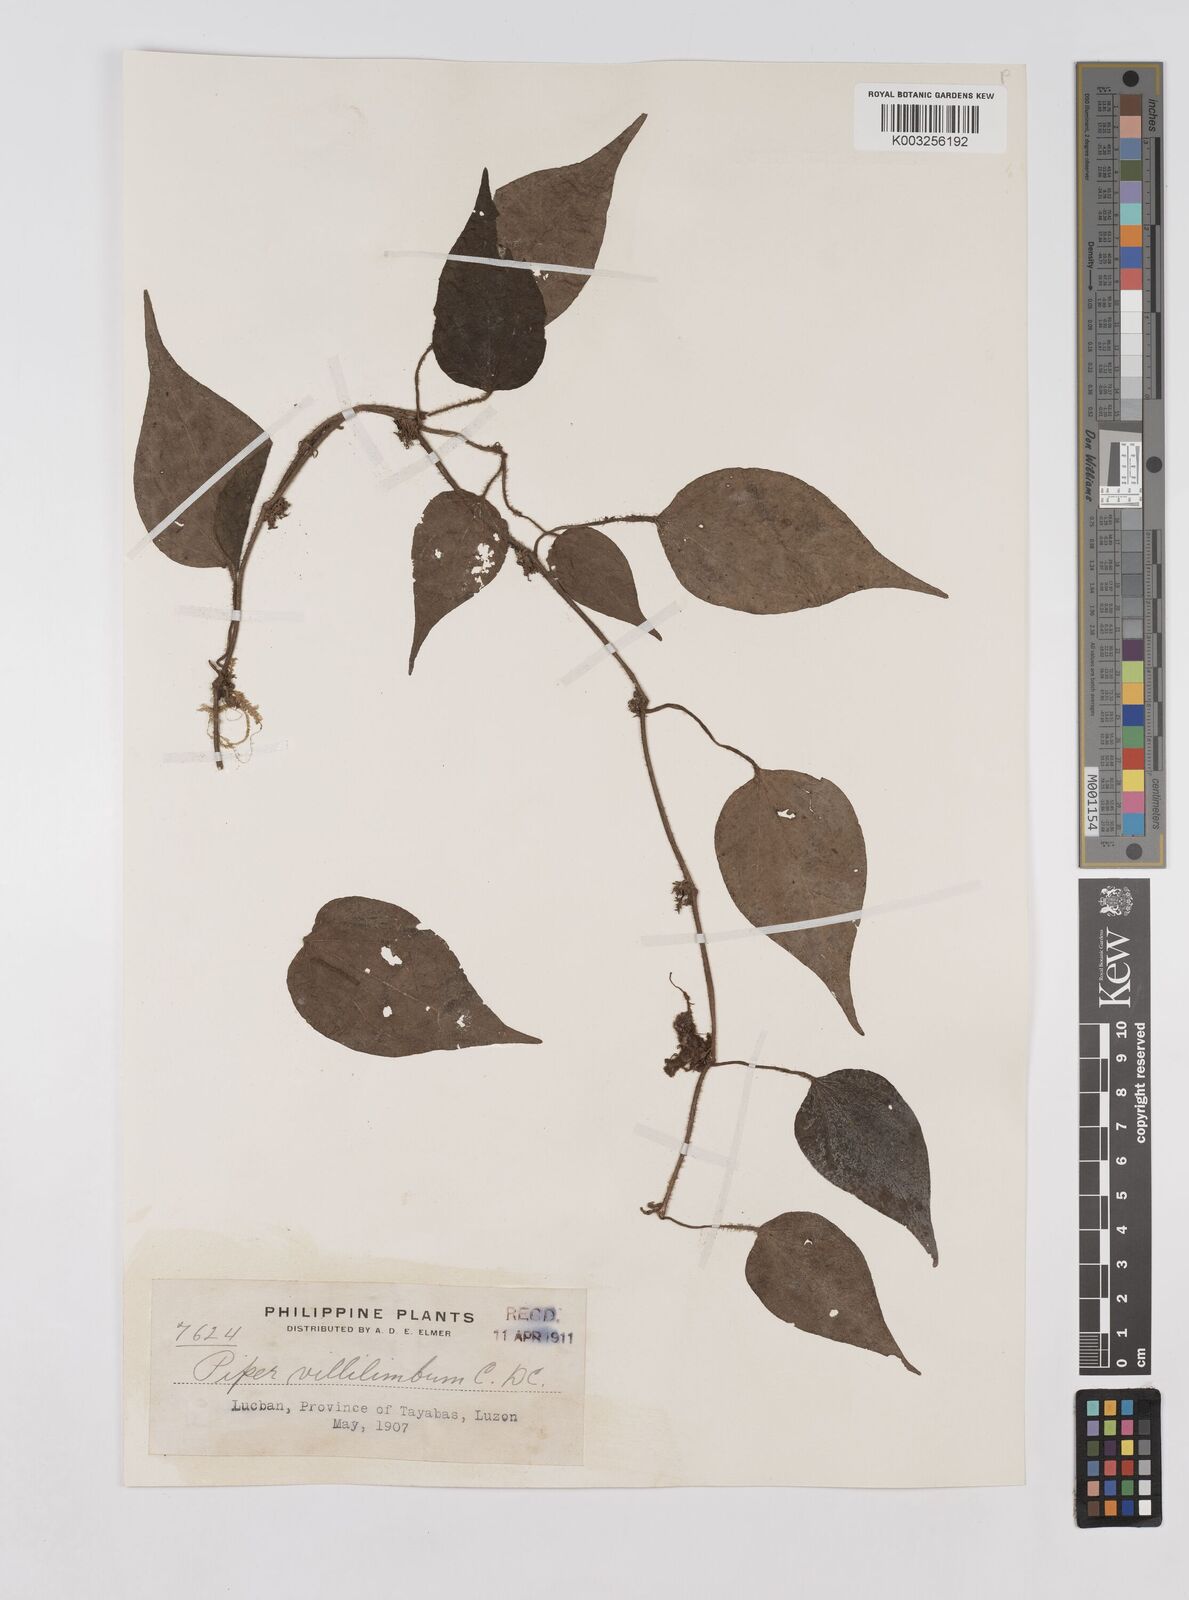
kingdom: Plantae
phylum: Tracheophyta
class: Magnoliopsida
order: Piperales
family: Piperaceae
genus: Piper
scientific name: Piper lanatum
